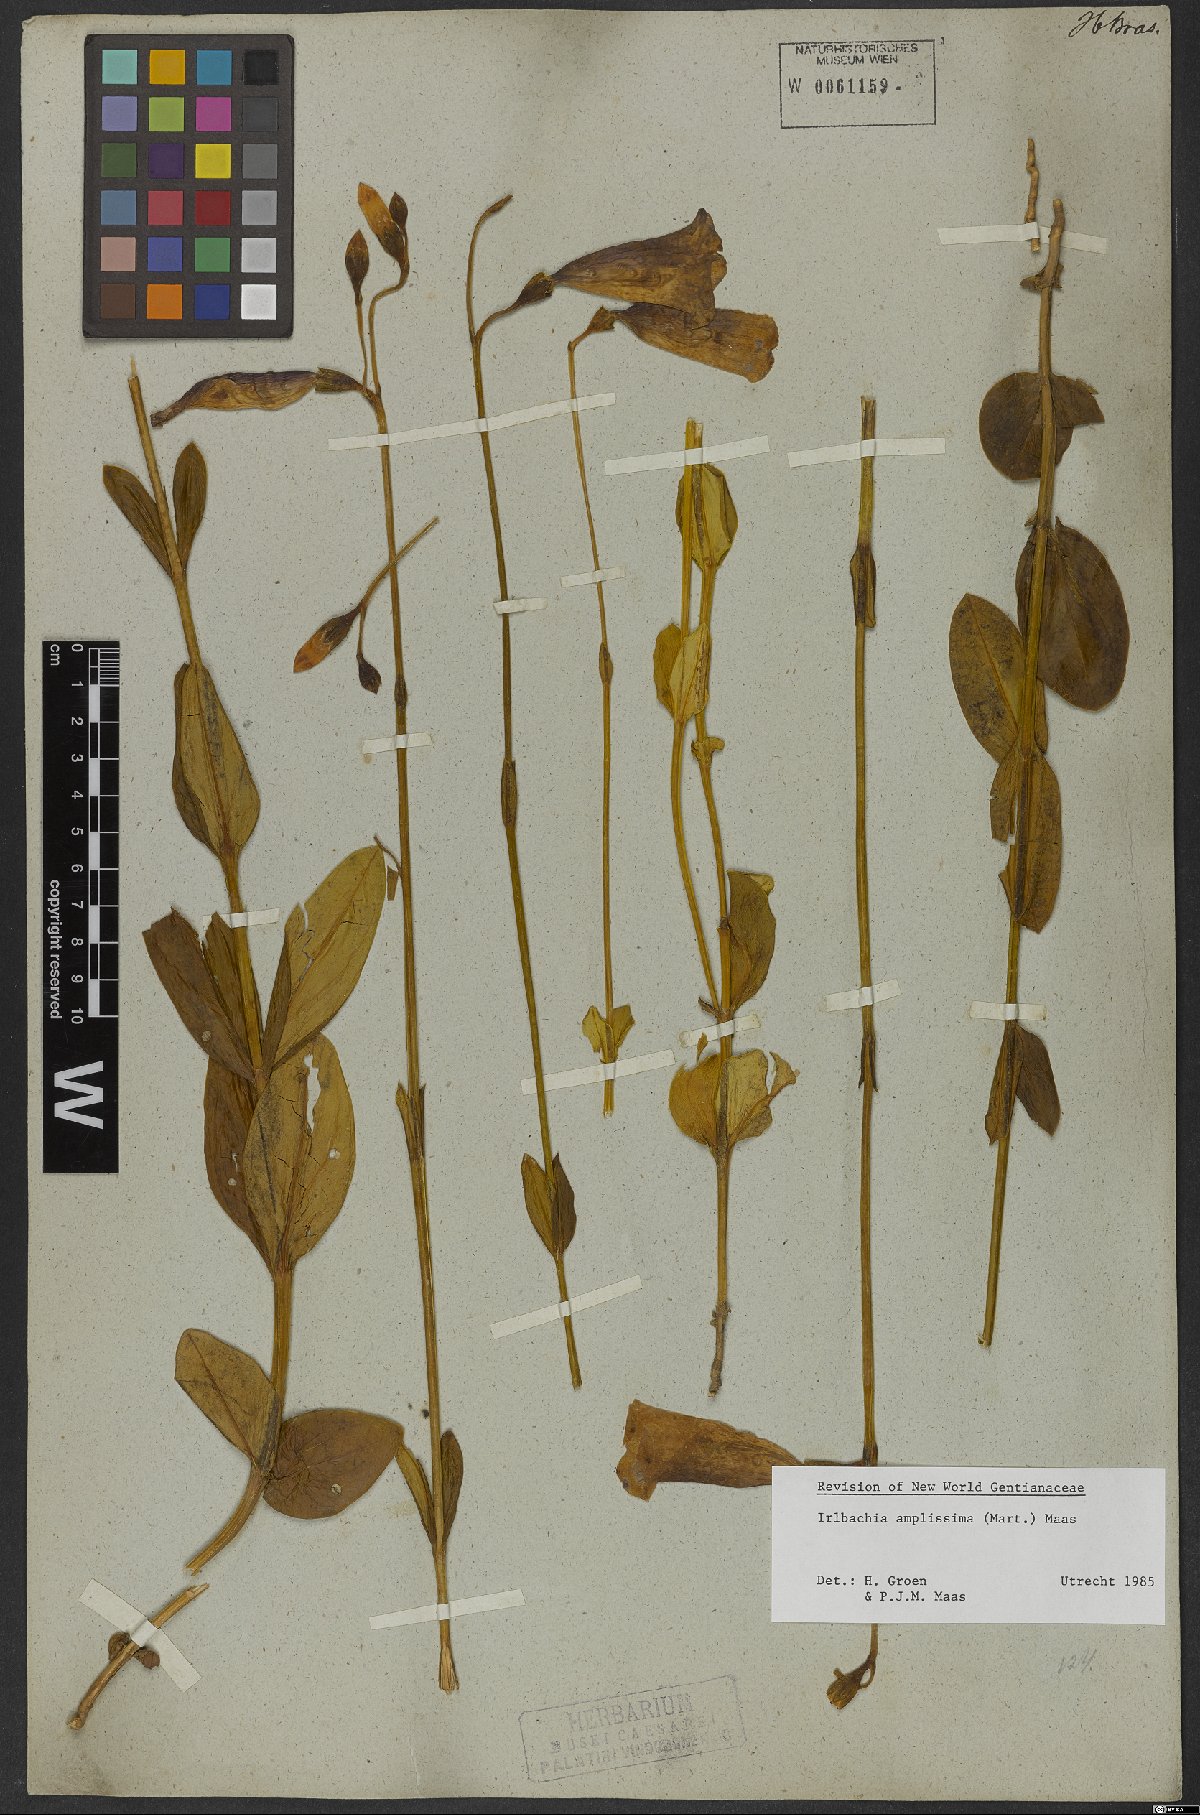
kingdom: Plantae
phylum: Tracheophyta
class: Magnoliopsida
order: Gentianales
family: Gentianaceae
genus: Calolisianthus
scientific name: Calolisianthus amplissimus
